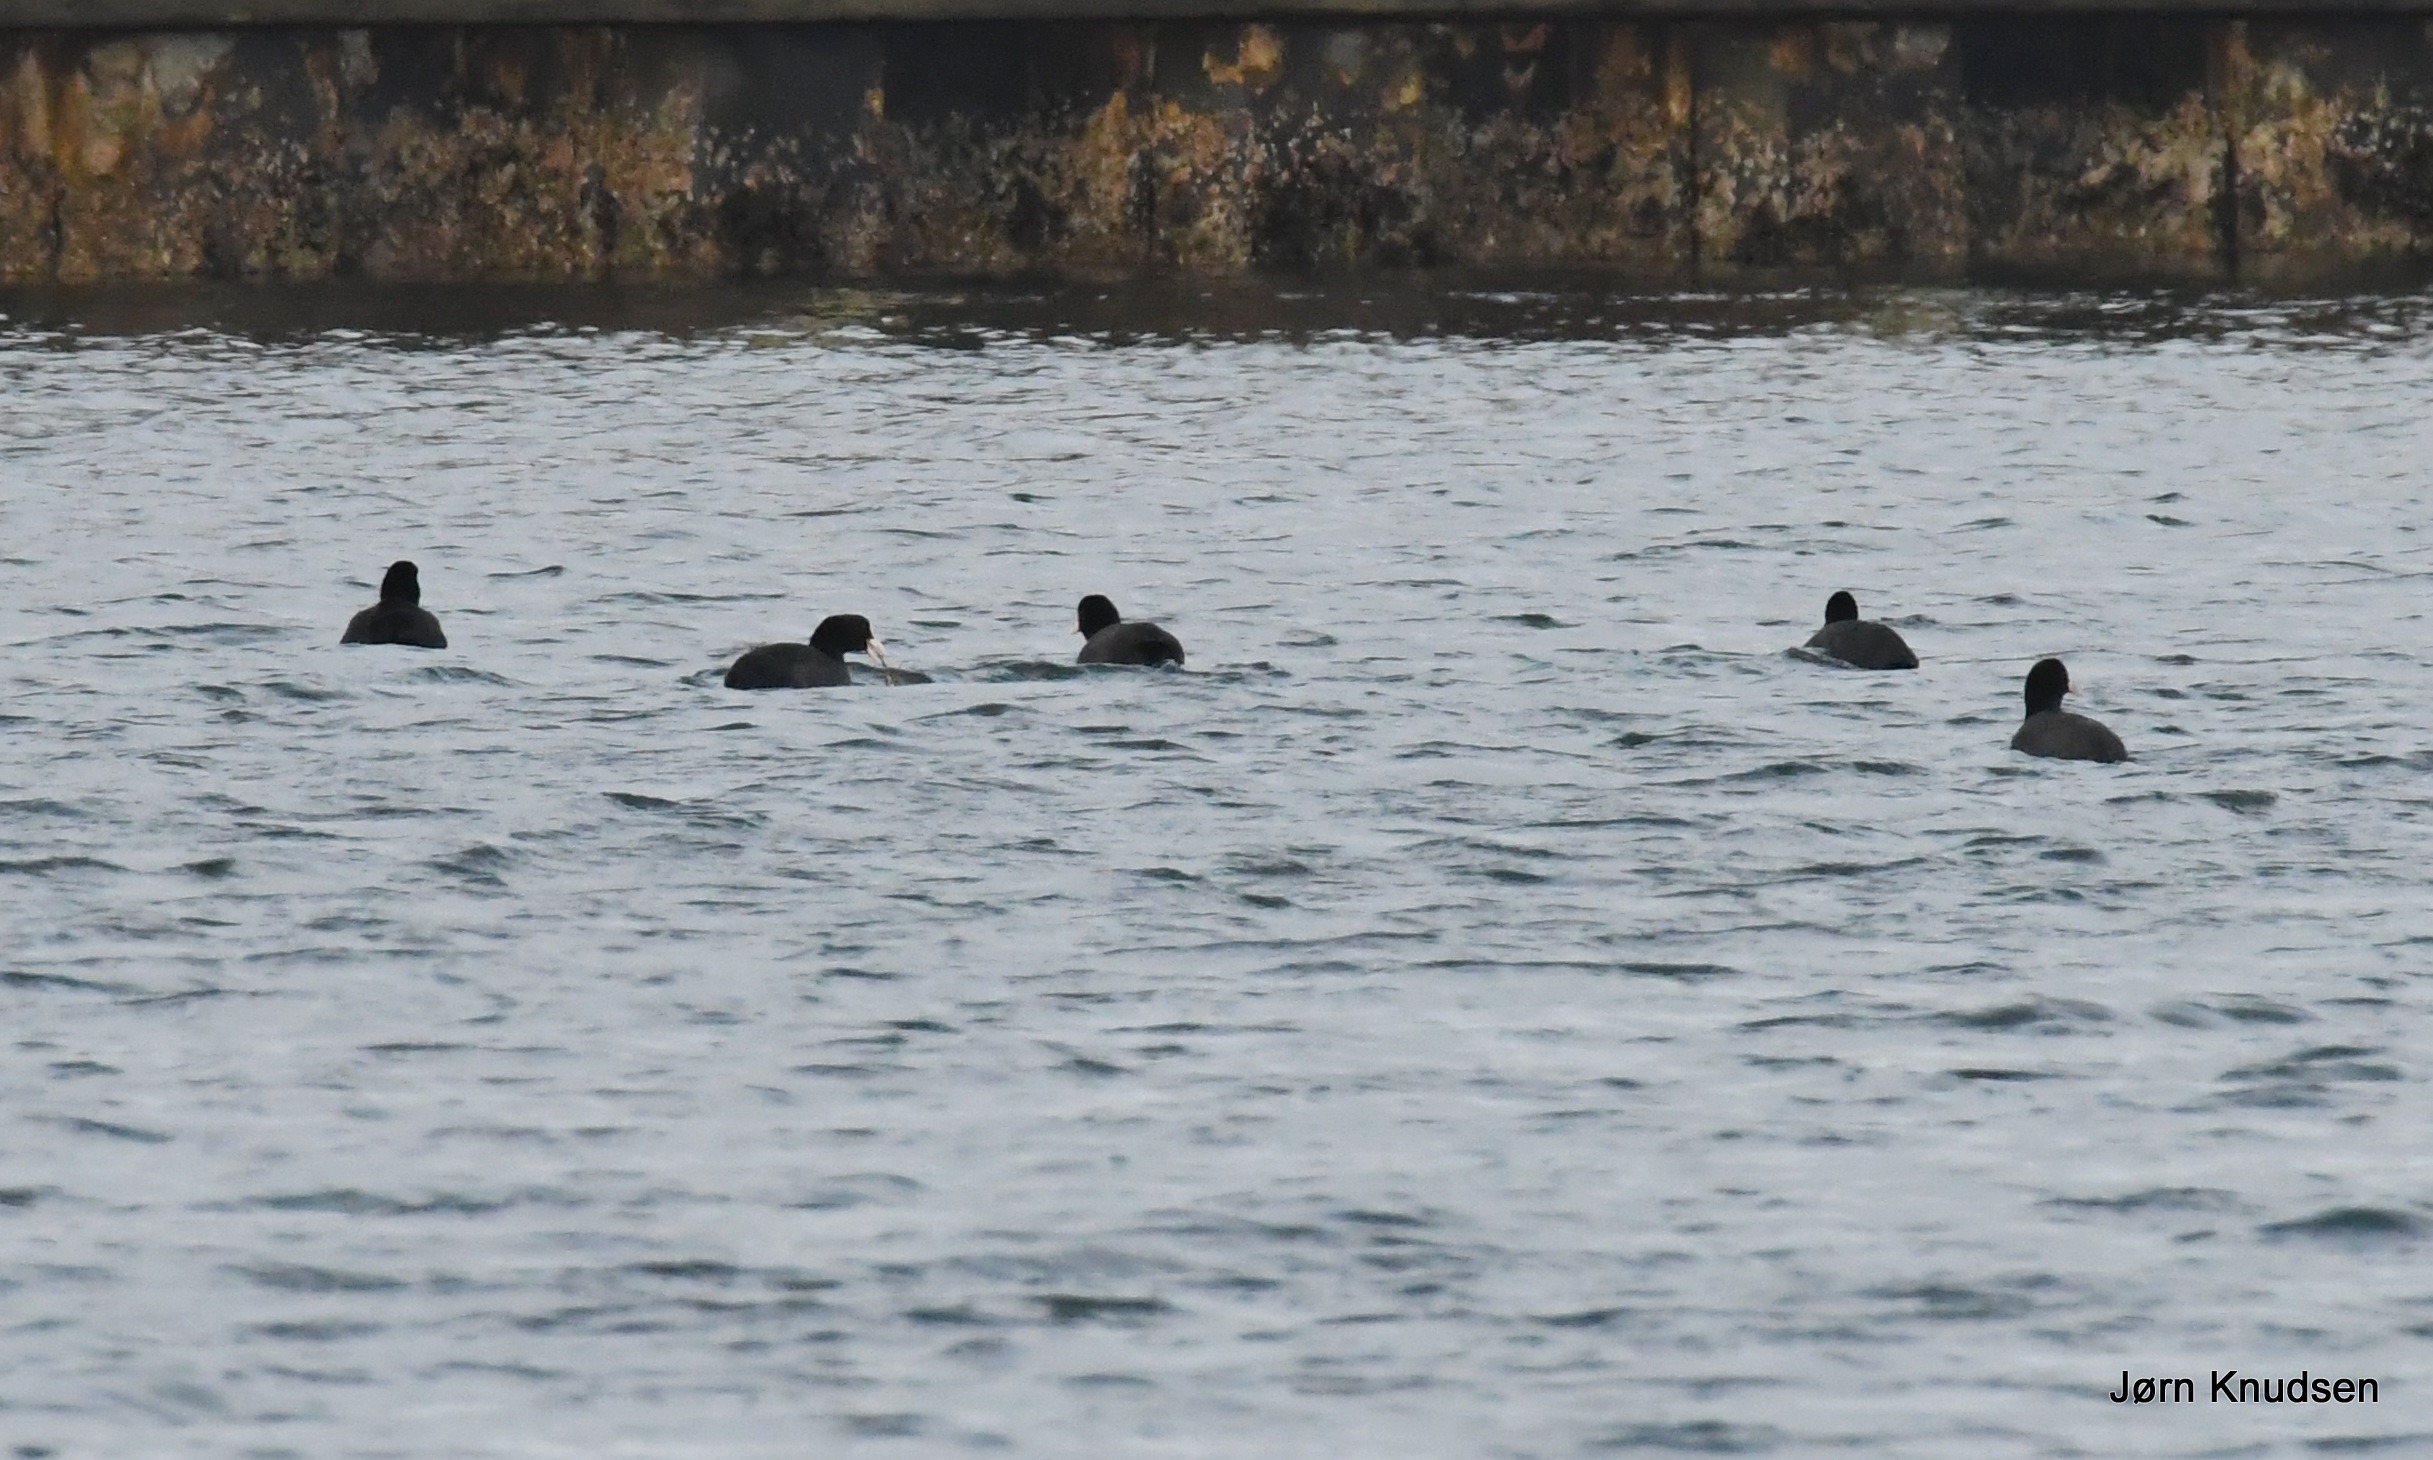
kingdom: Animalia
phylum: Chordata
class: Aves
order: Gruiformes
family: Rallidae
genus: Fulica
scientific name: Fulica atra
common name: Blishøne
